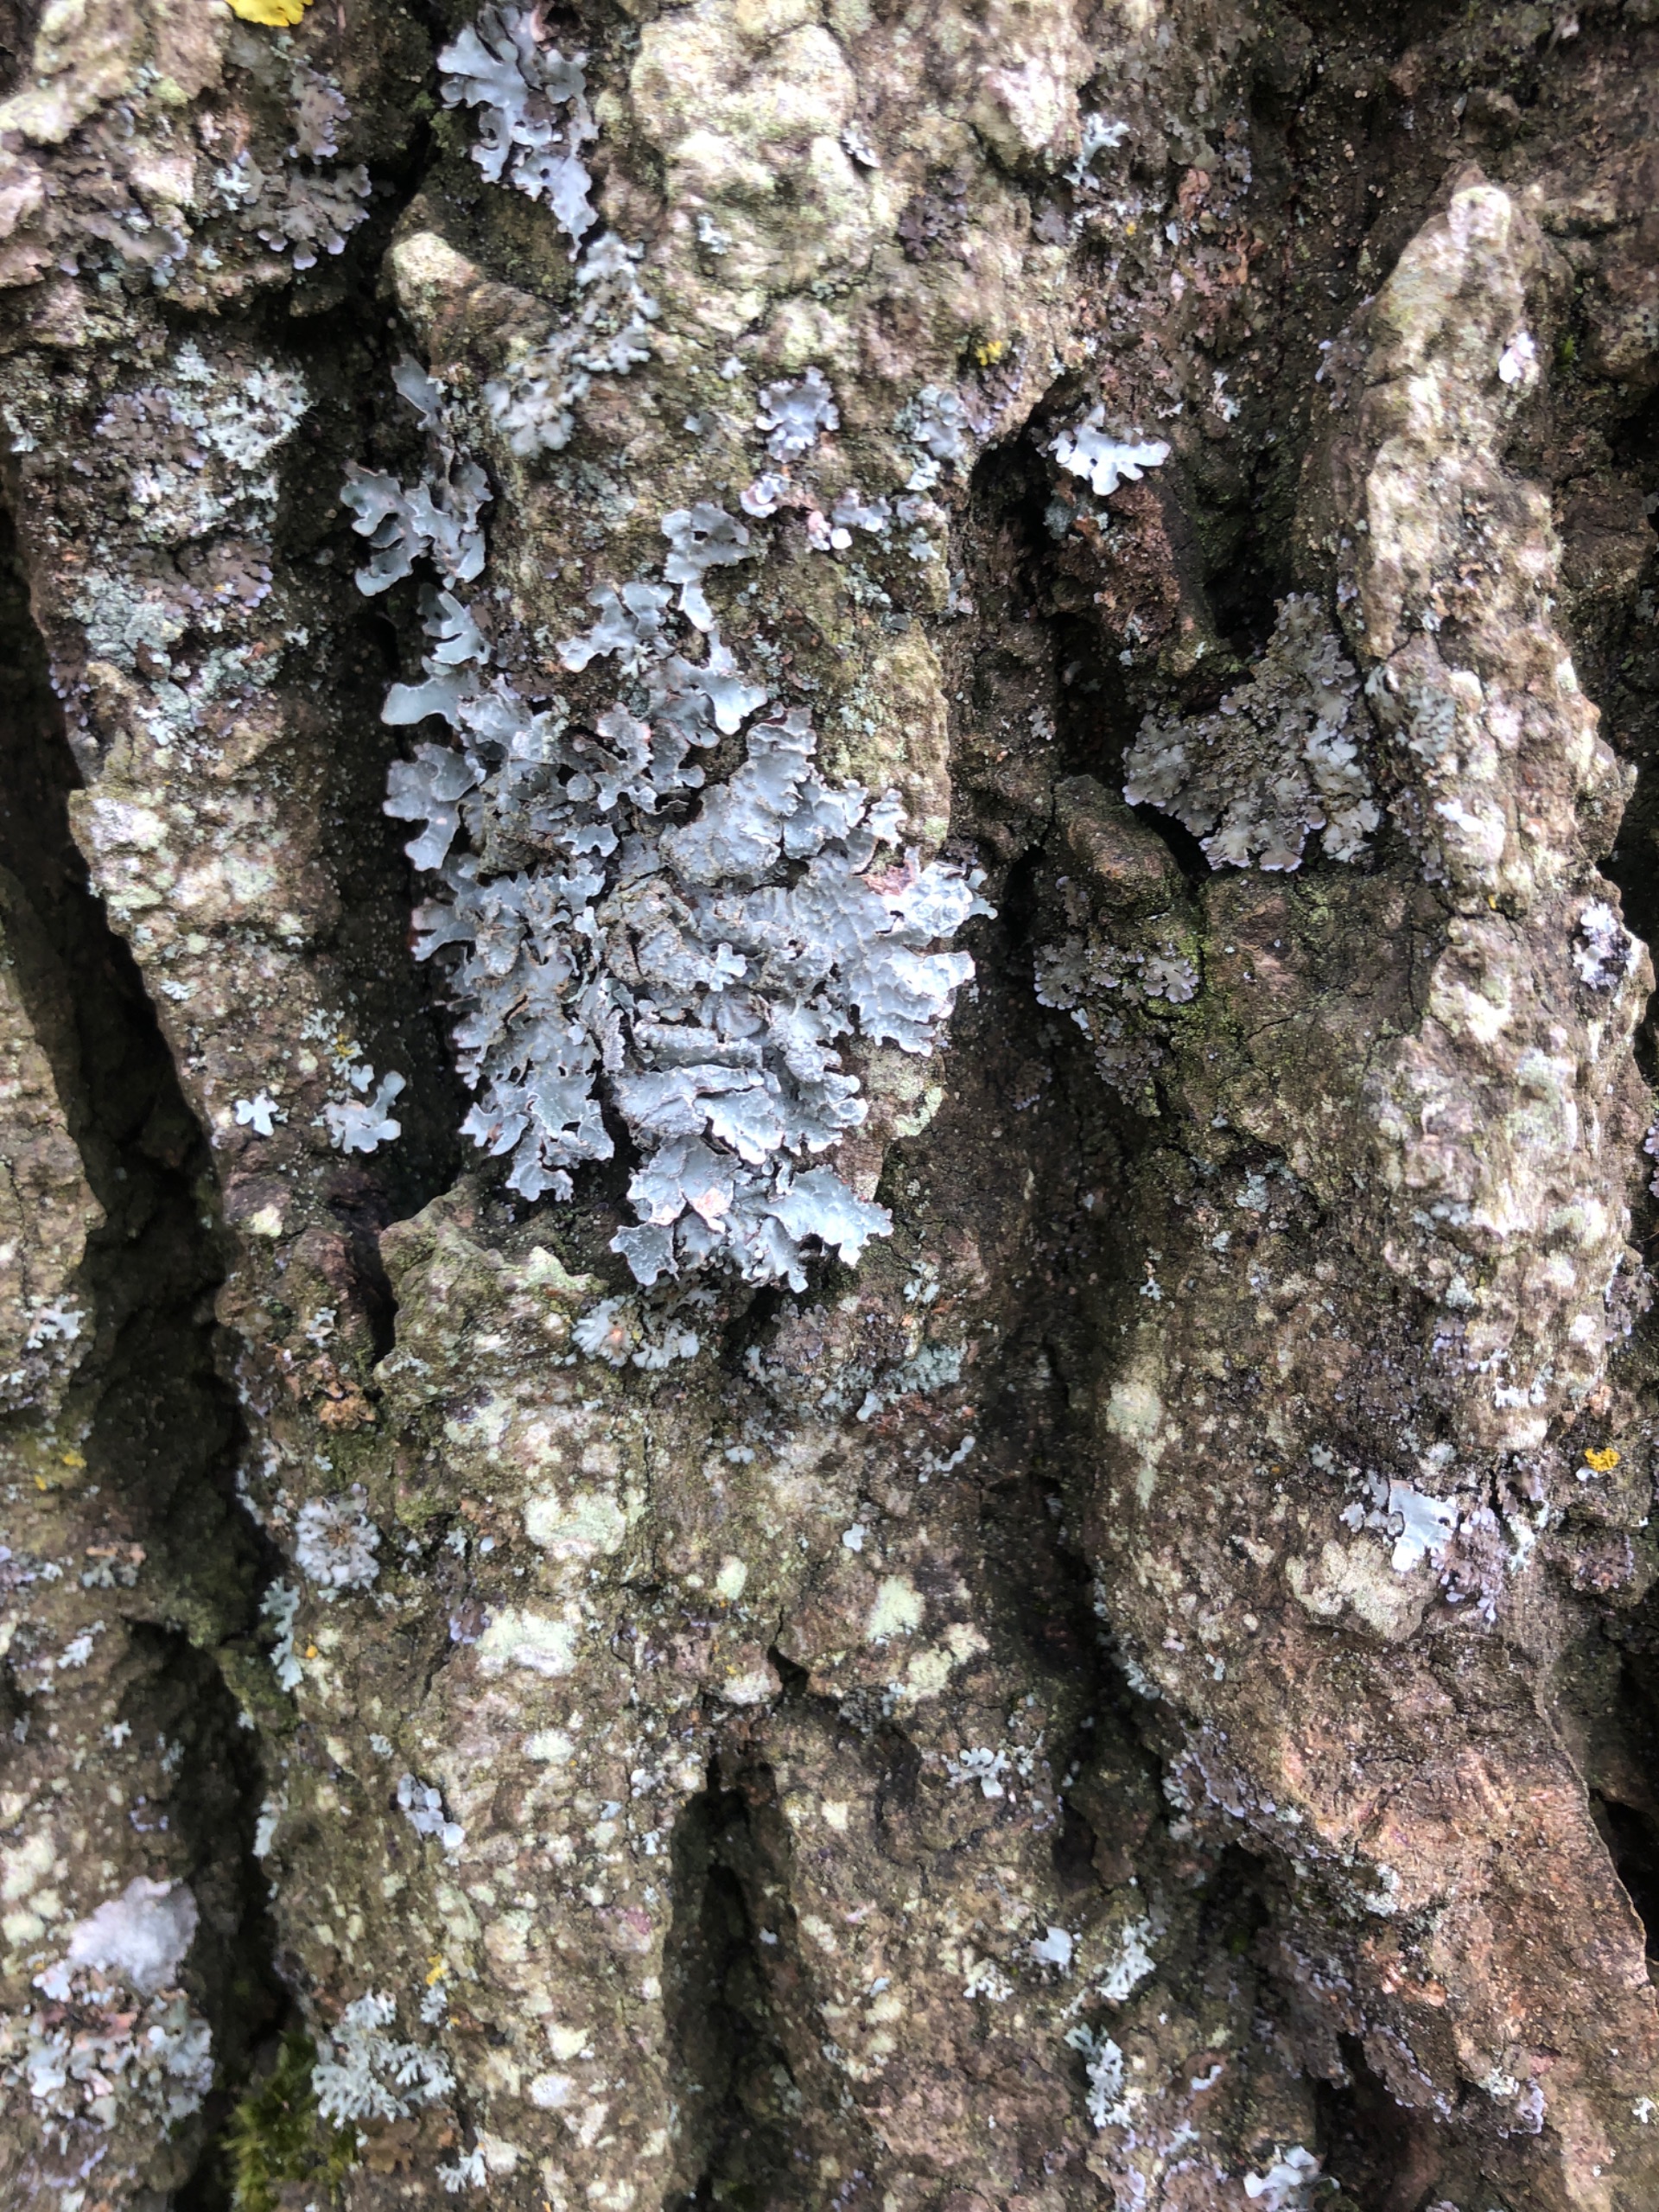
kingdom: Fungi
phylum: Ascomycota
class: Lecanoromycetes
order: Lecanorales
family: Parmeliaceae
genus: Parmelia
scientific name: Parmelia sulcata
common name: Rynket skållav
